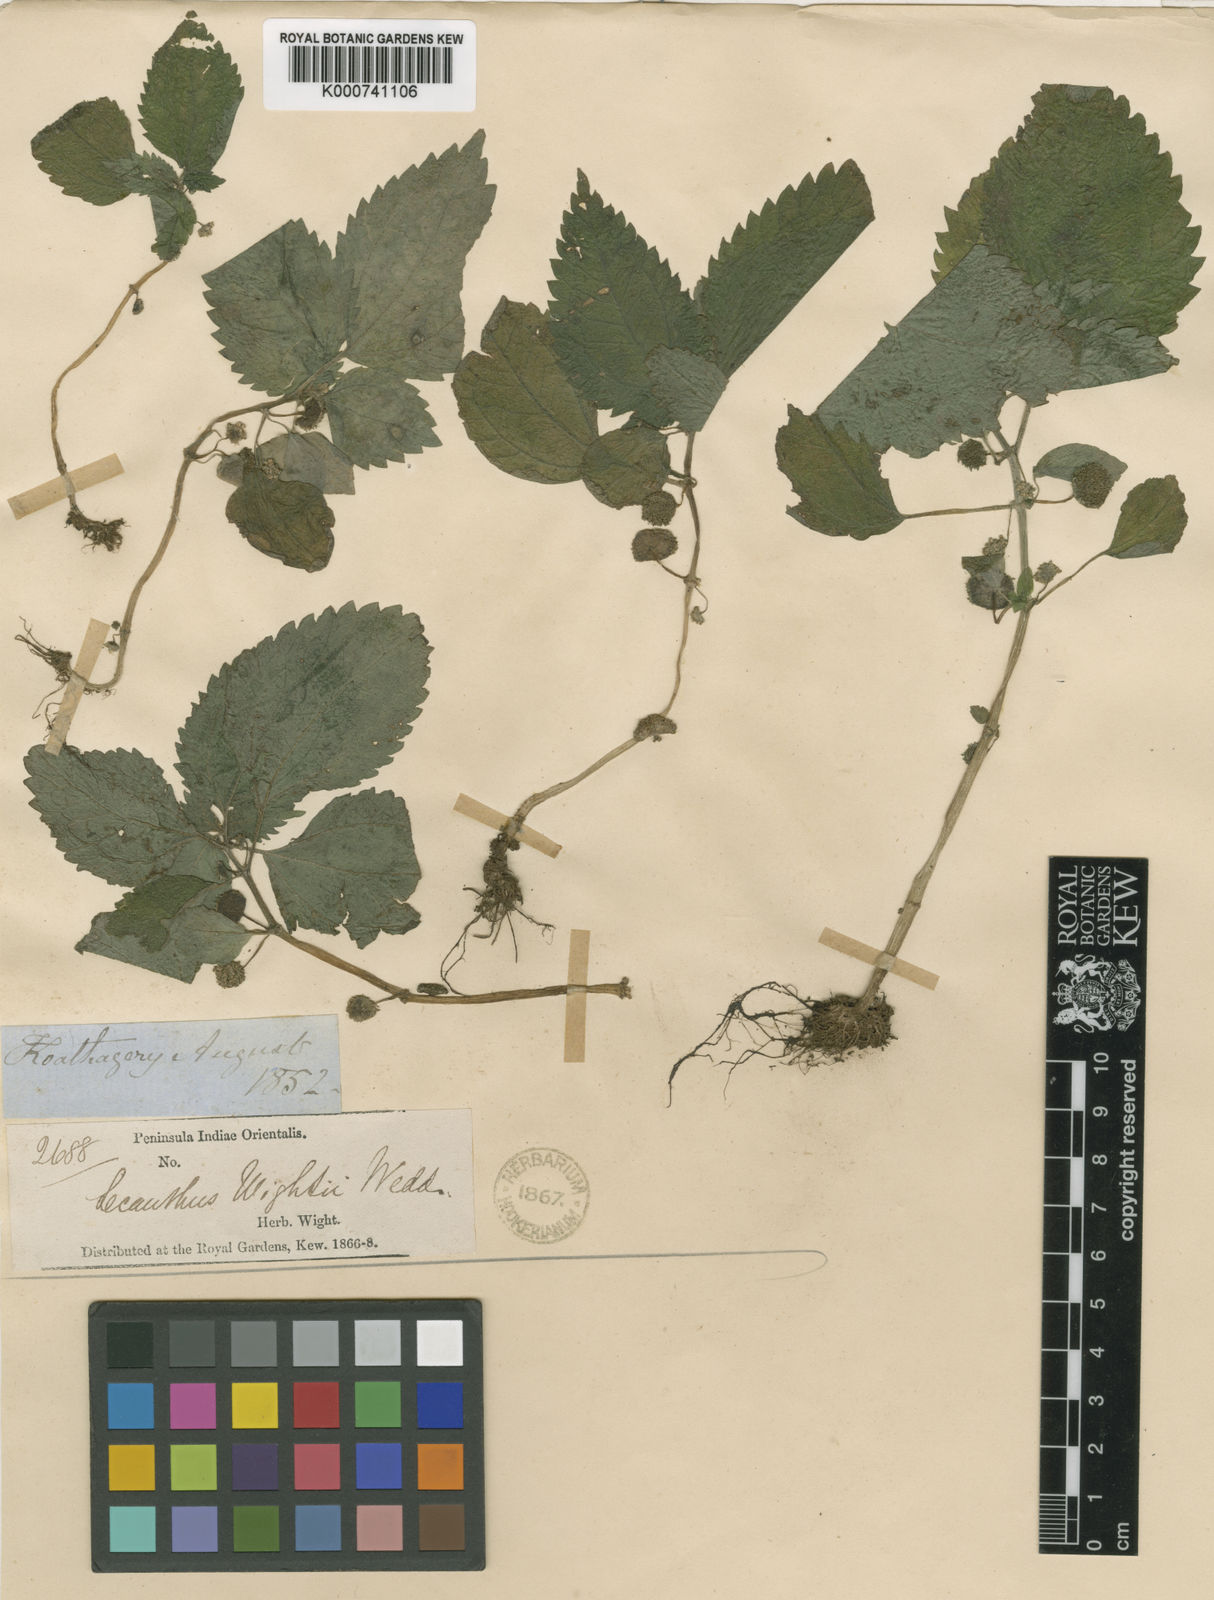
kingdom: Plantae
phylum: Tracheophyta
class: Magnoliopsida
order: Rosales
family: Urticaceae
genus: Lecanthus
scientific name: Lecanthus obtusus
